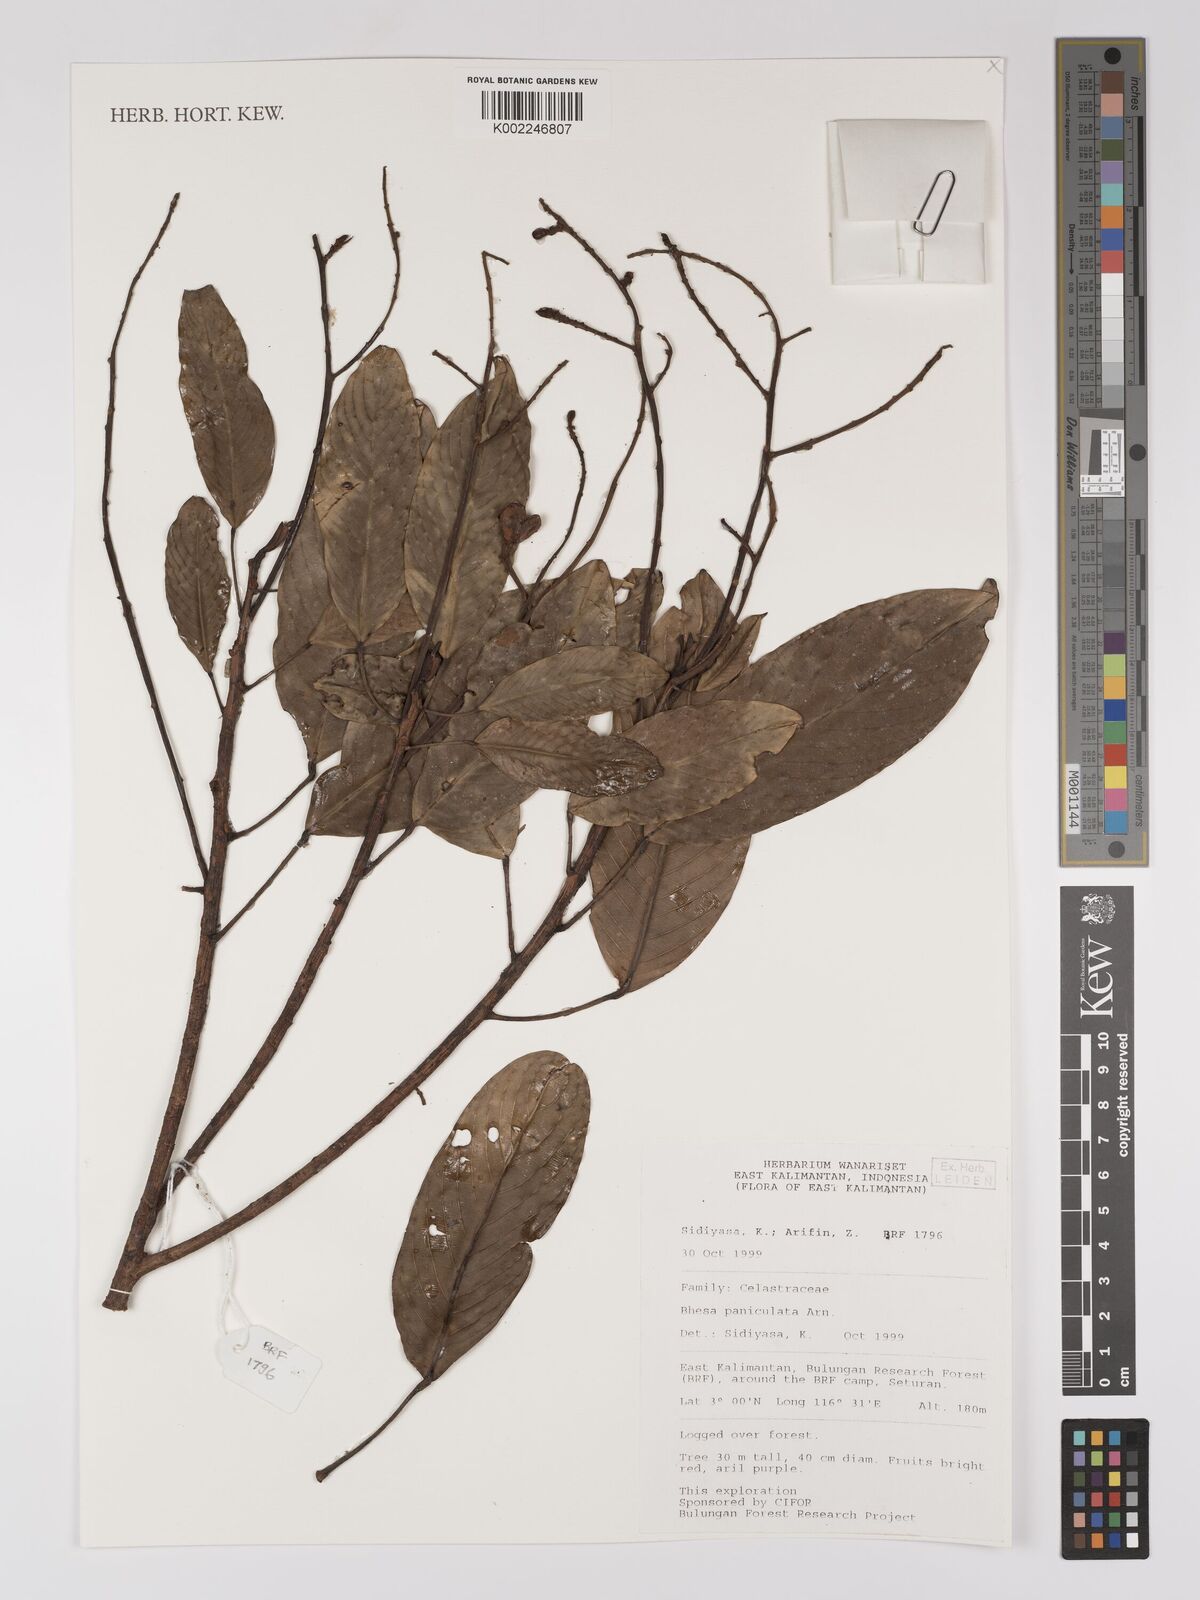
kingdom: Plantae
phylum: Tracheophyta
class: Magnoliopsida
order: Malpighiales
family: Centroplacaceae
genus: Bhesa
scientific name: Bhesa paniculata
